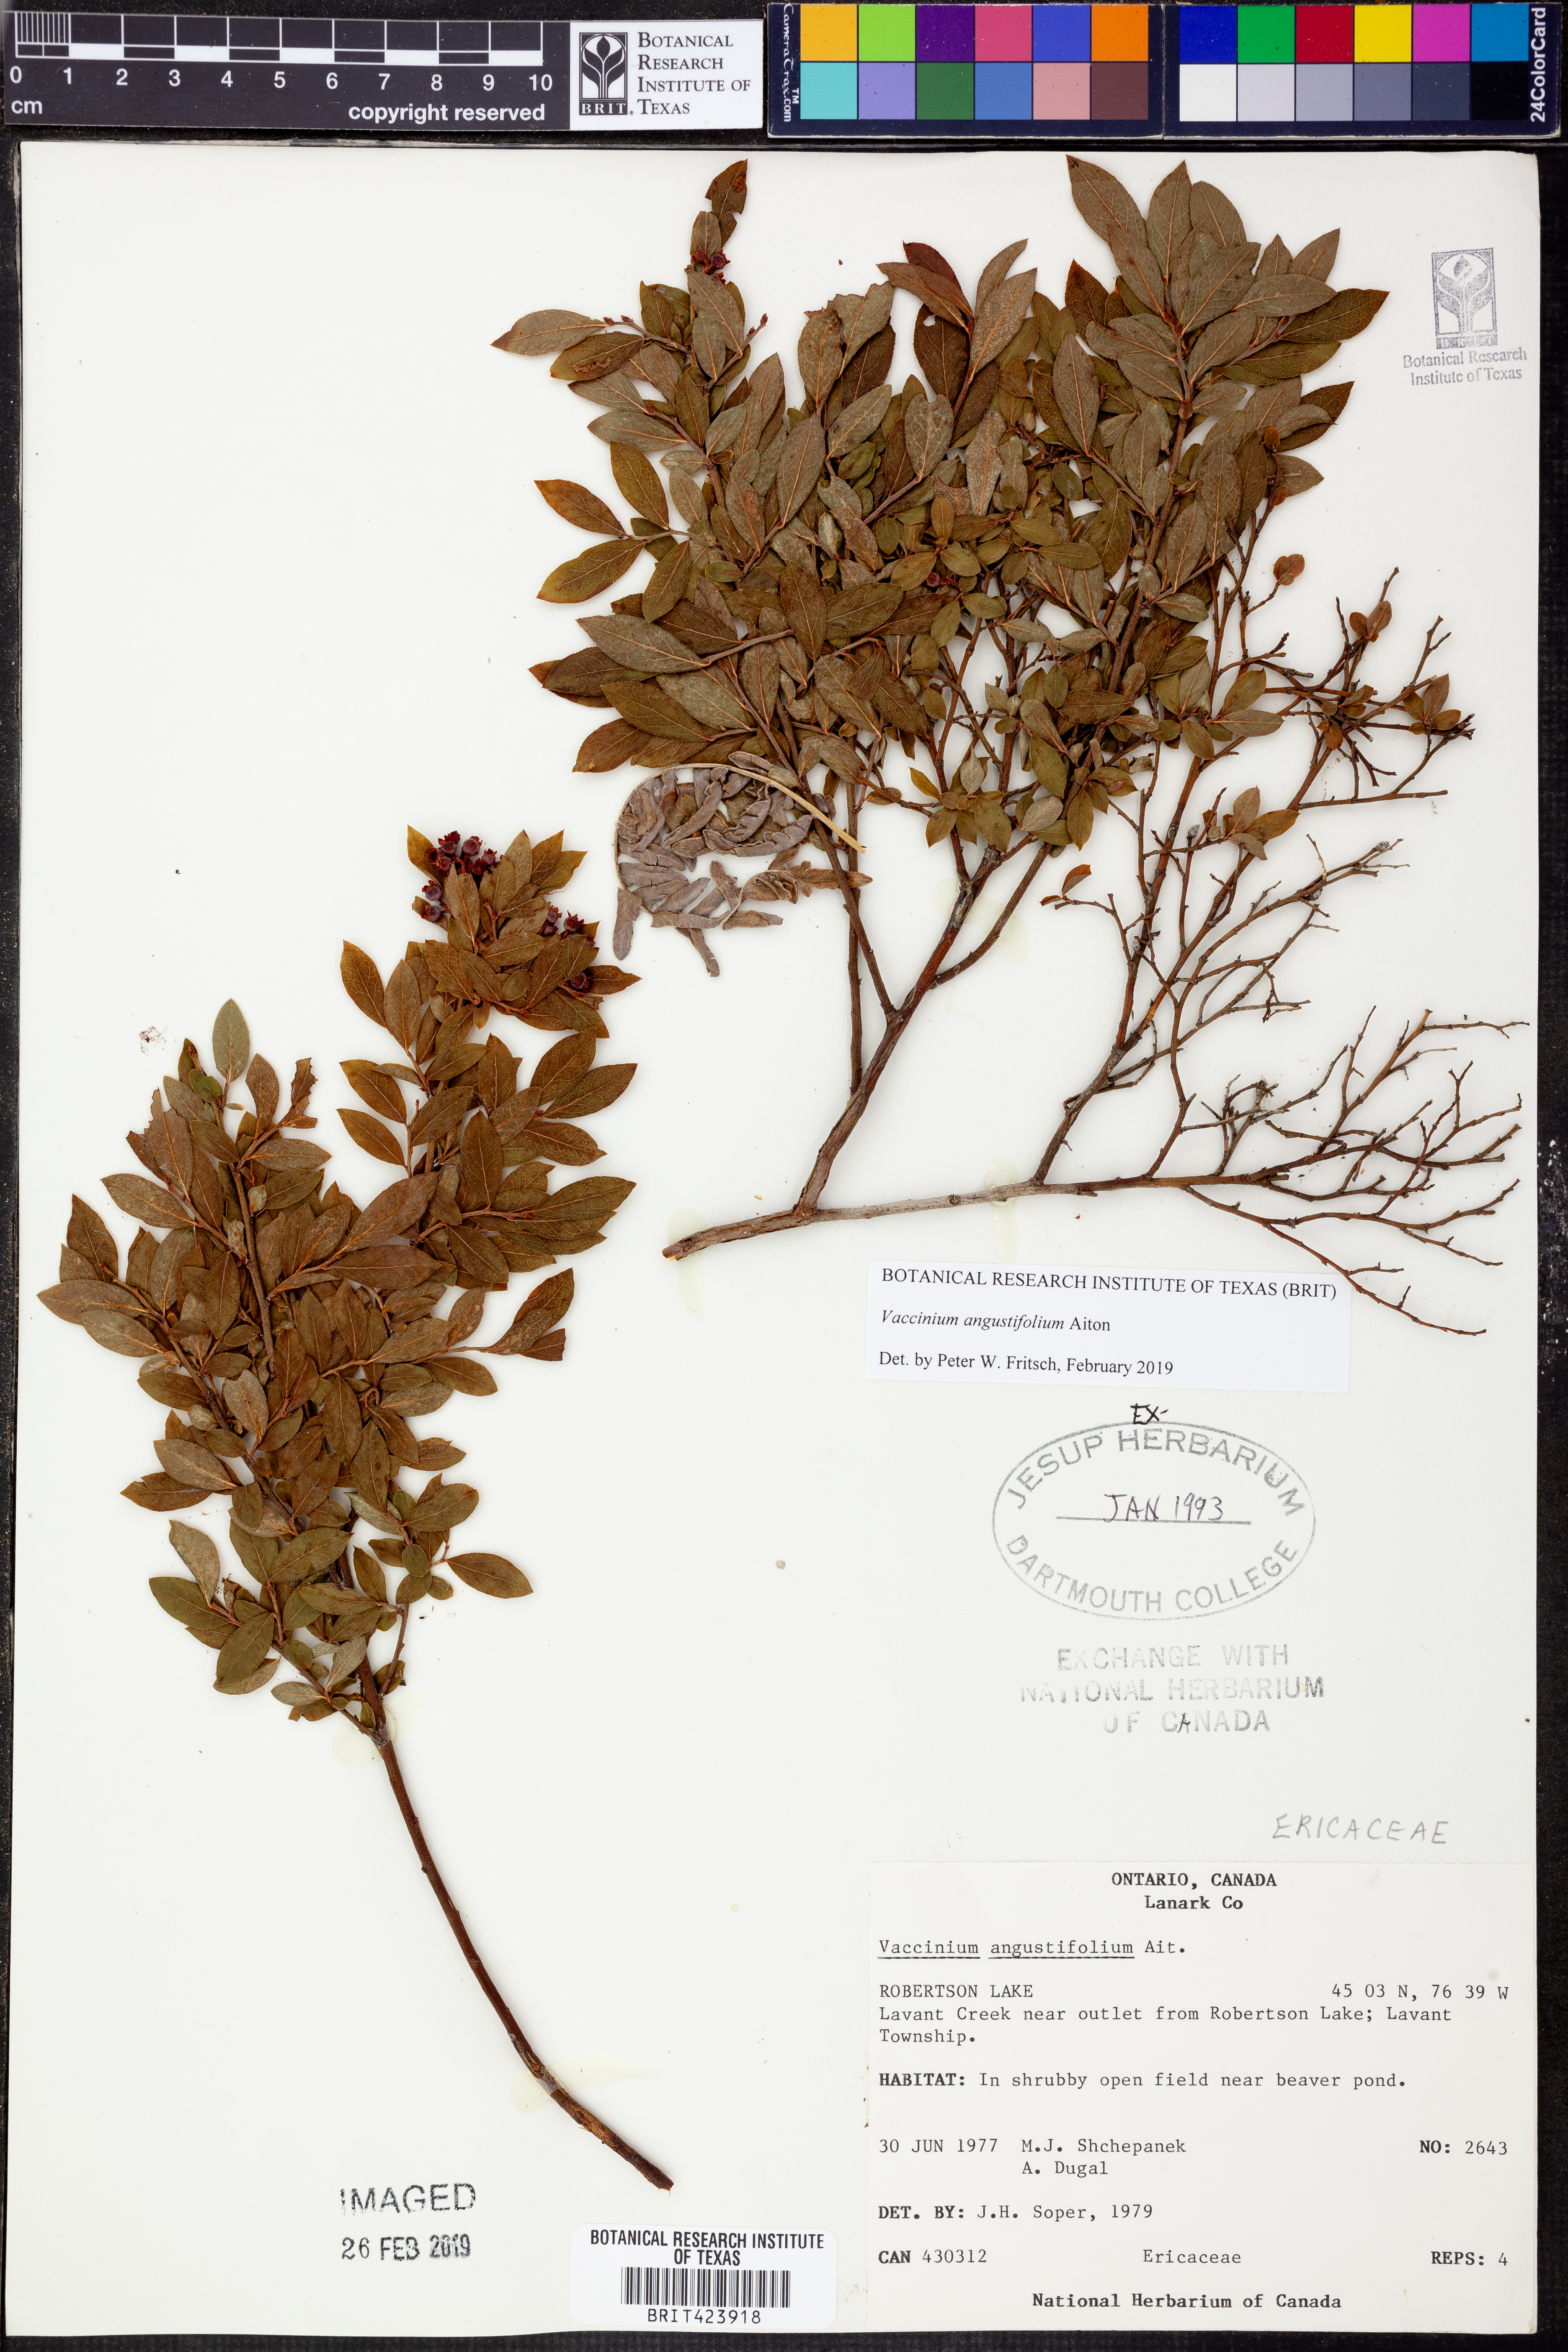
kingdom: Plantae
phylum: Tracheophyta
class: Magnoliopsida
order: Ericales
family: Ericaceae
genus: Vaccinium
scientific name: Vaccinium angustifolium
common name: Early lowbush blueberry
